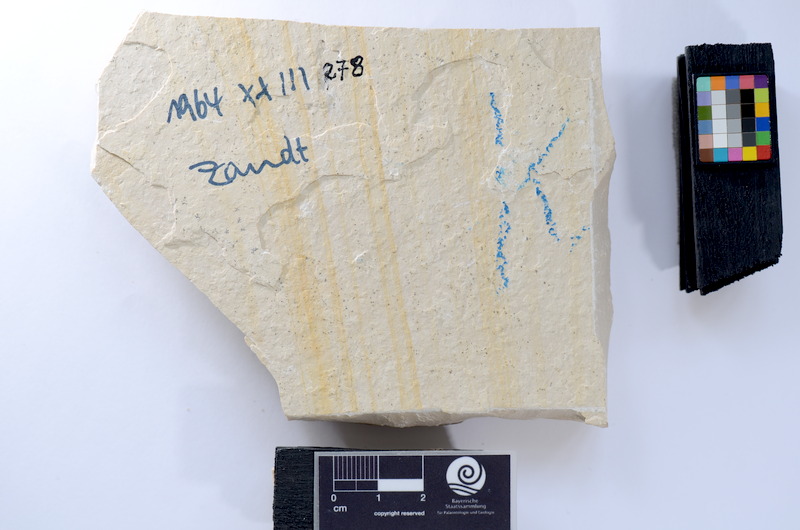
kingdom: Animalia
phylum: Chordata
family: Allothrissopidae
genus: Allothrissops
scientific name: Allothrissops mesogaster
